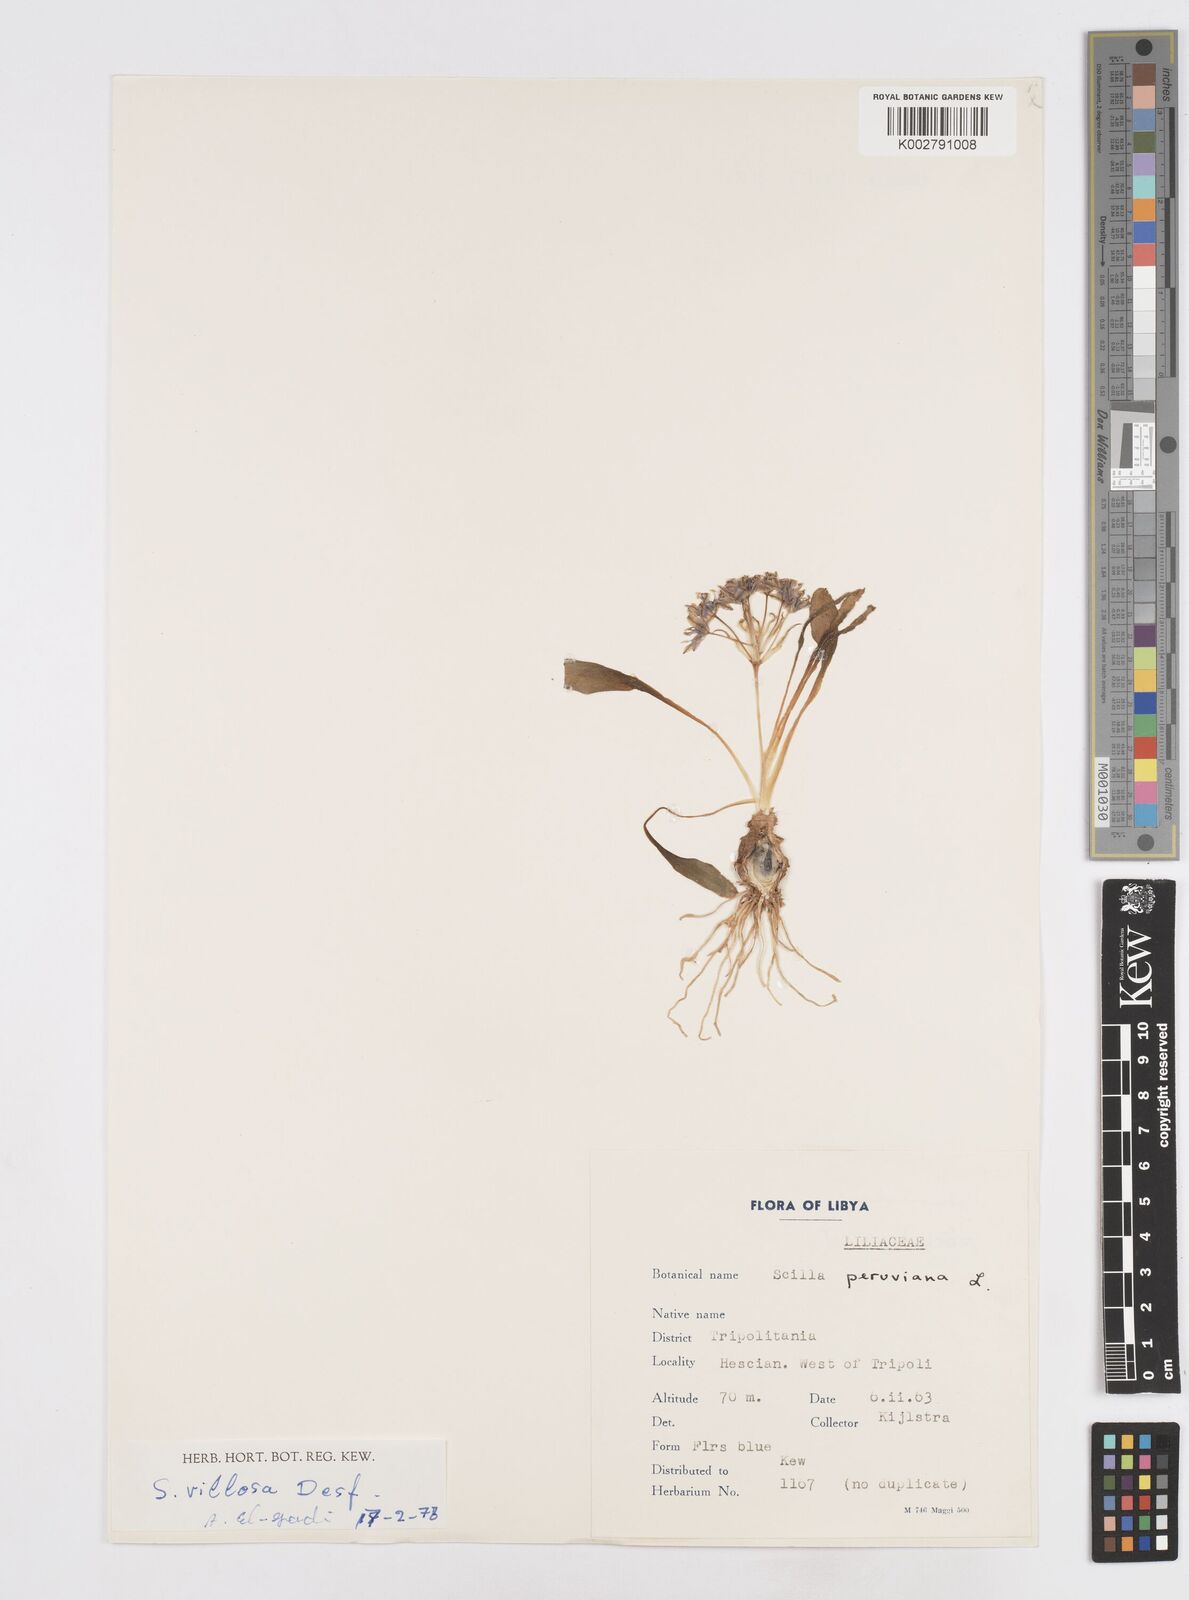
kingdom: Plantae
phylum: Tracheophyta
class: Liliopsida
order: Asparagales
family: Asparagaceae
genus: Scilla
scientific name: Scilla peruviana
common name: Portuguese squill
